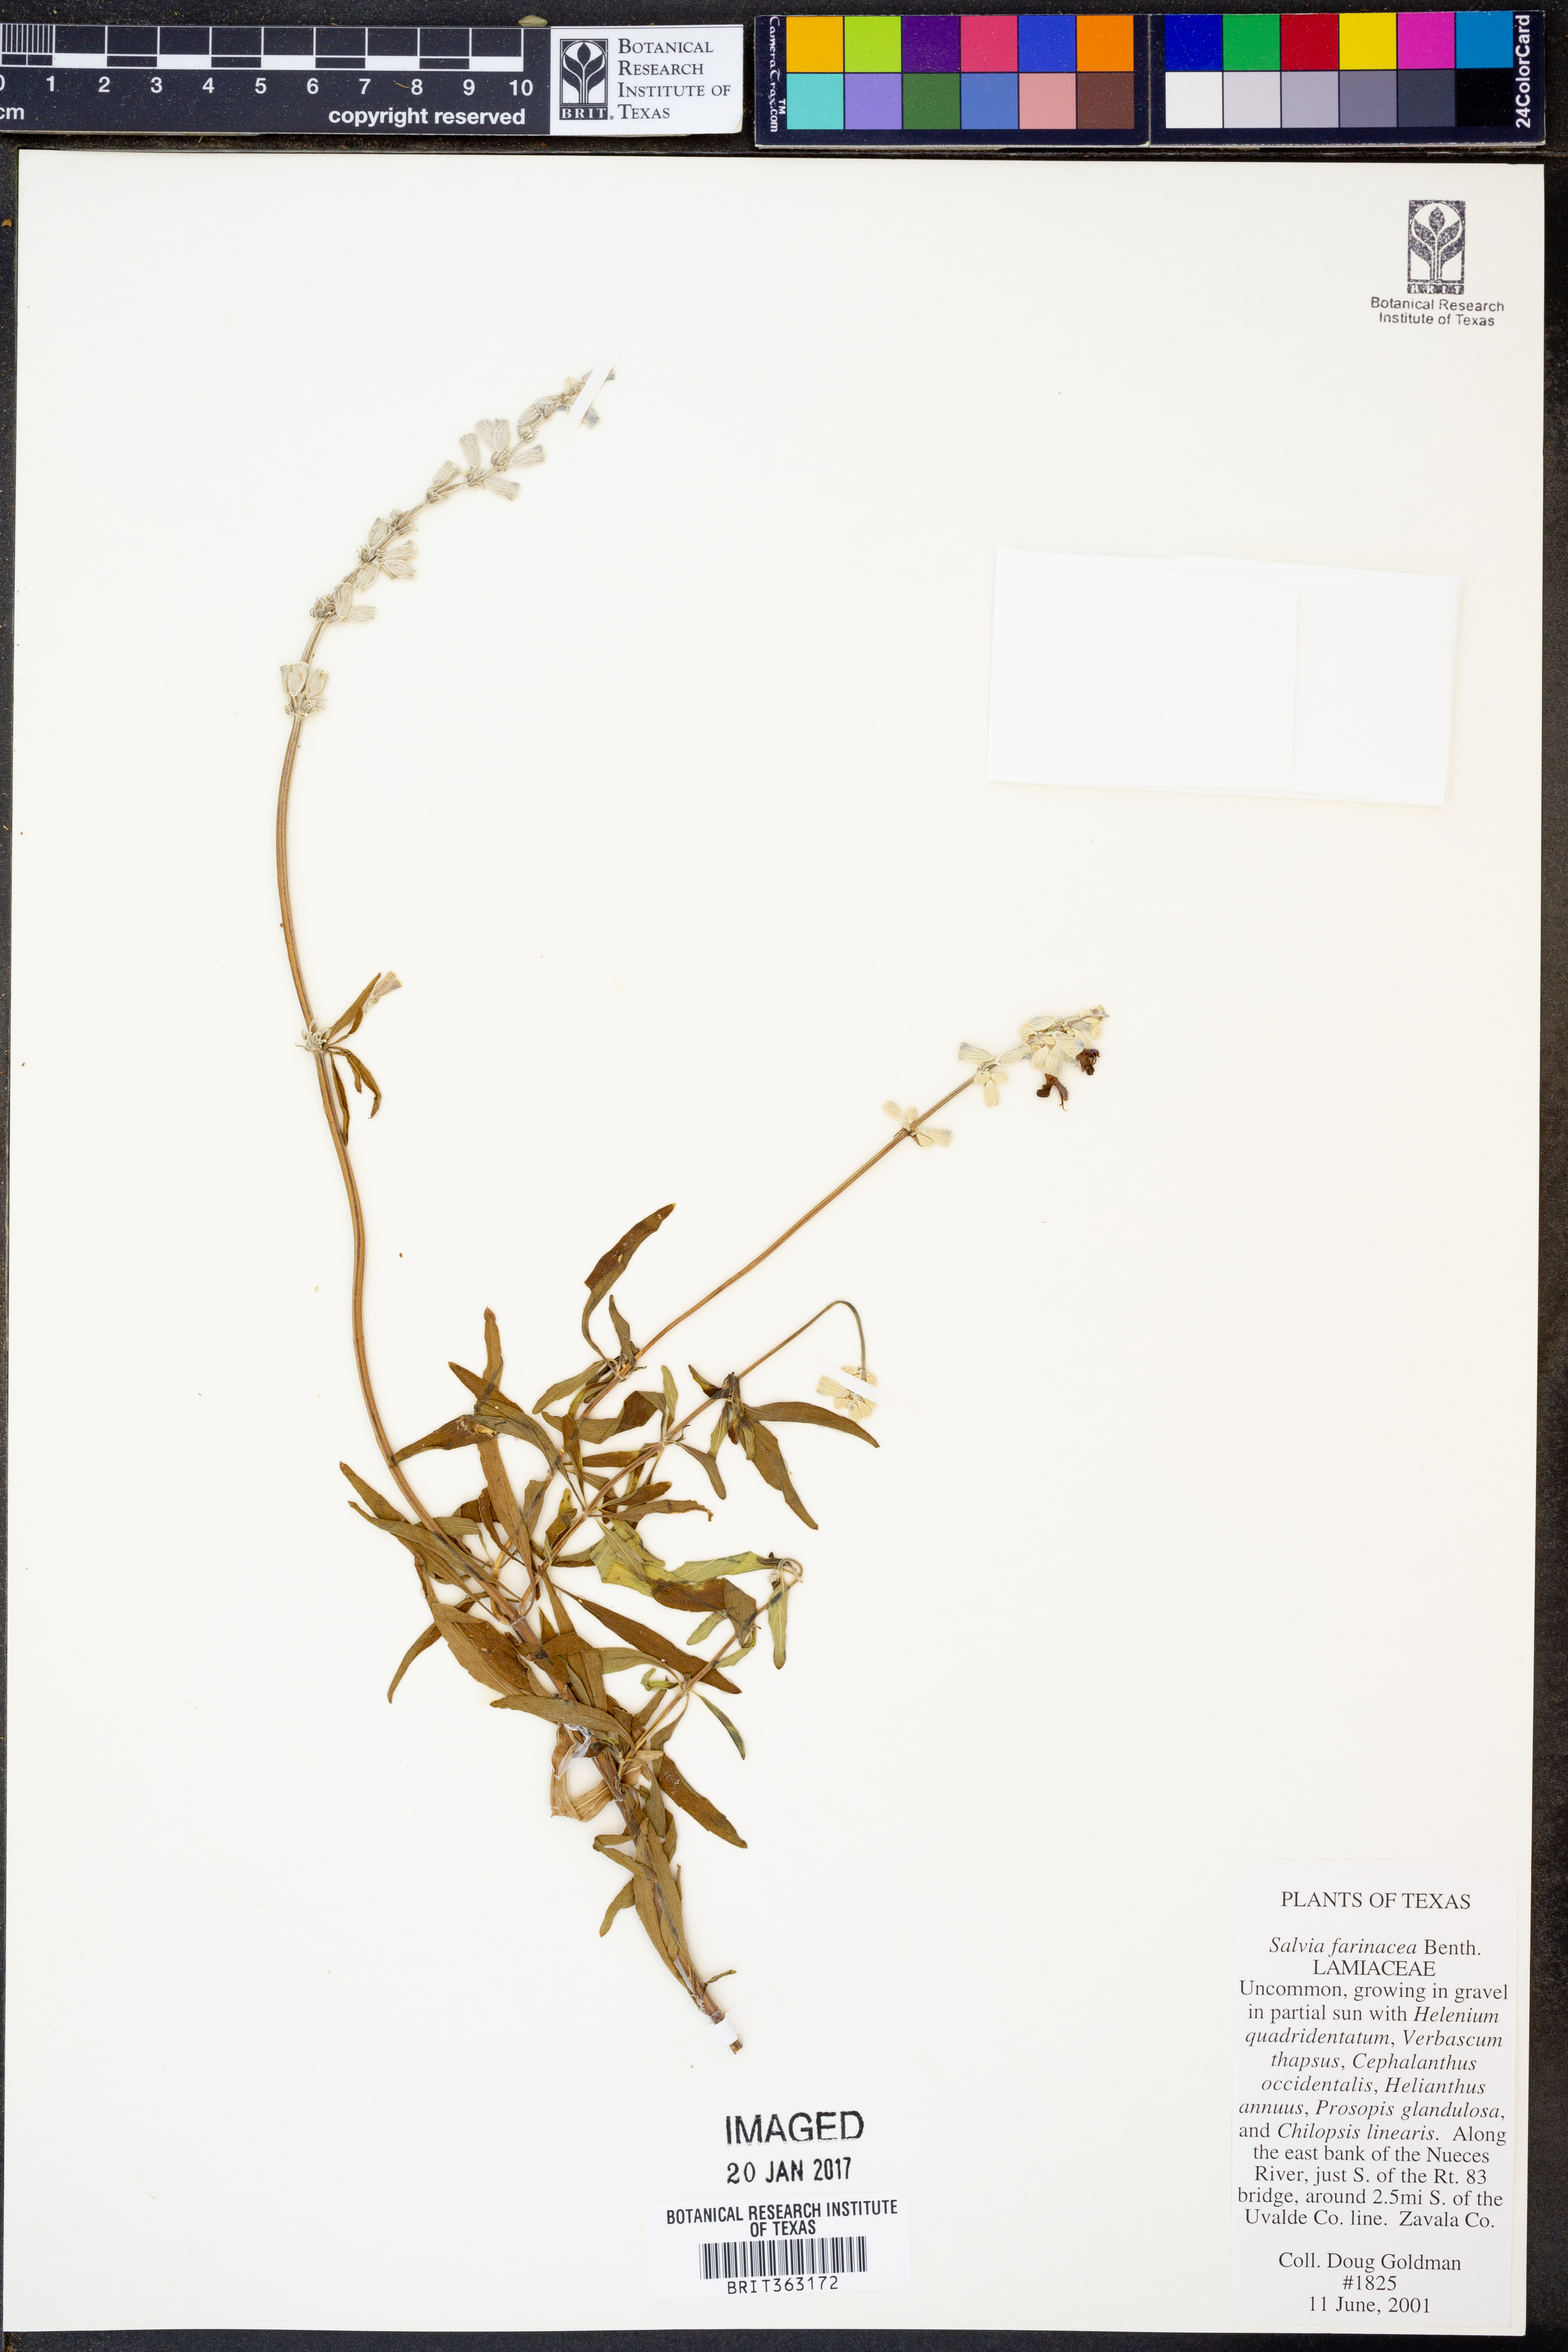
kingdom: Plantae
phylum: Tracheophyta
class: Magnoliopsida
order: Lamiales
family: Lamiaceae
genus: Salvia
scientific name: Salvia farinacea
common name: Mealy sage
